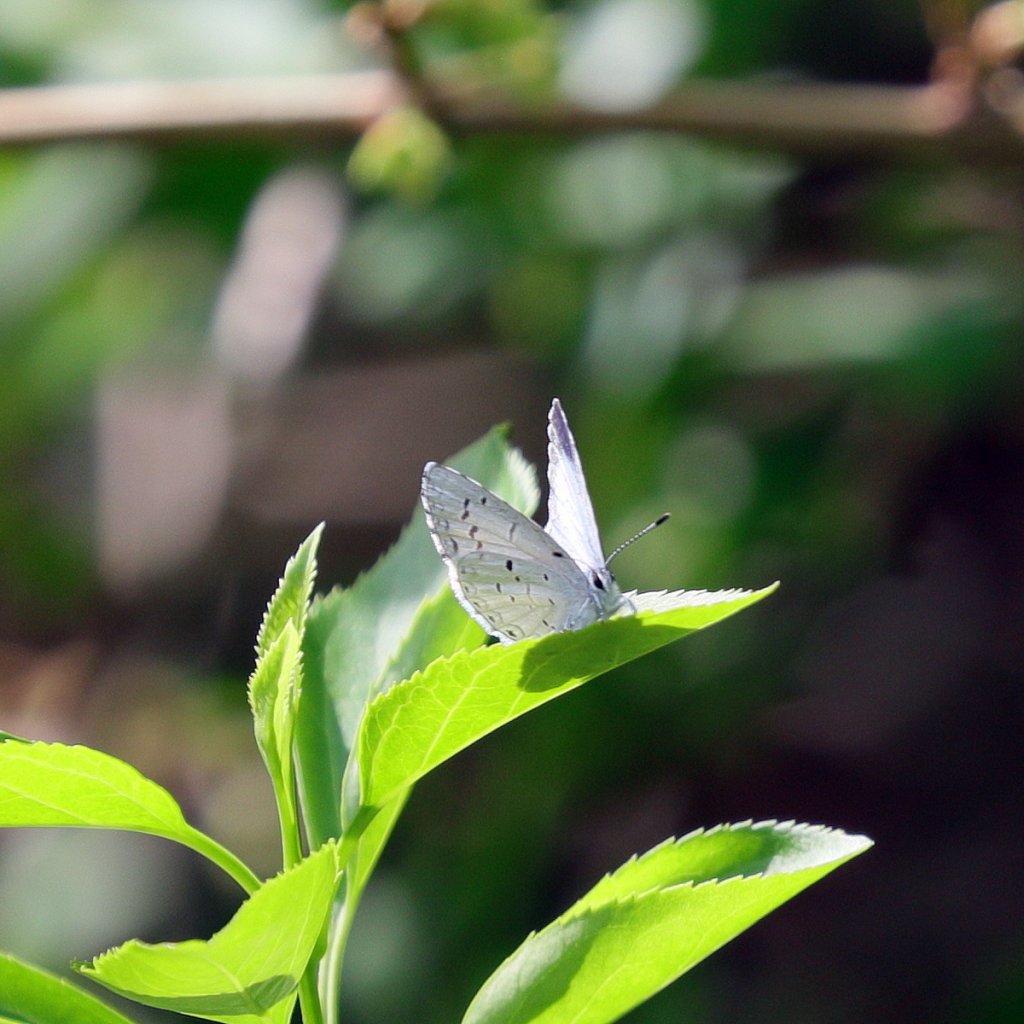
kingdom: Animalia
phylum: Arthropoda
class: Insecta
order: Lepidoptera
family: Lycaenidae
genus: Celastrina
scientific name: Celastrina lucia
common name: Northern Spring Azure
